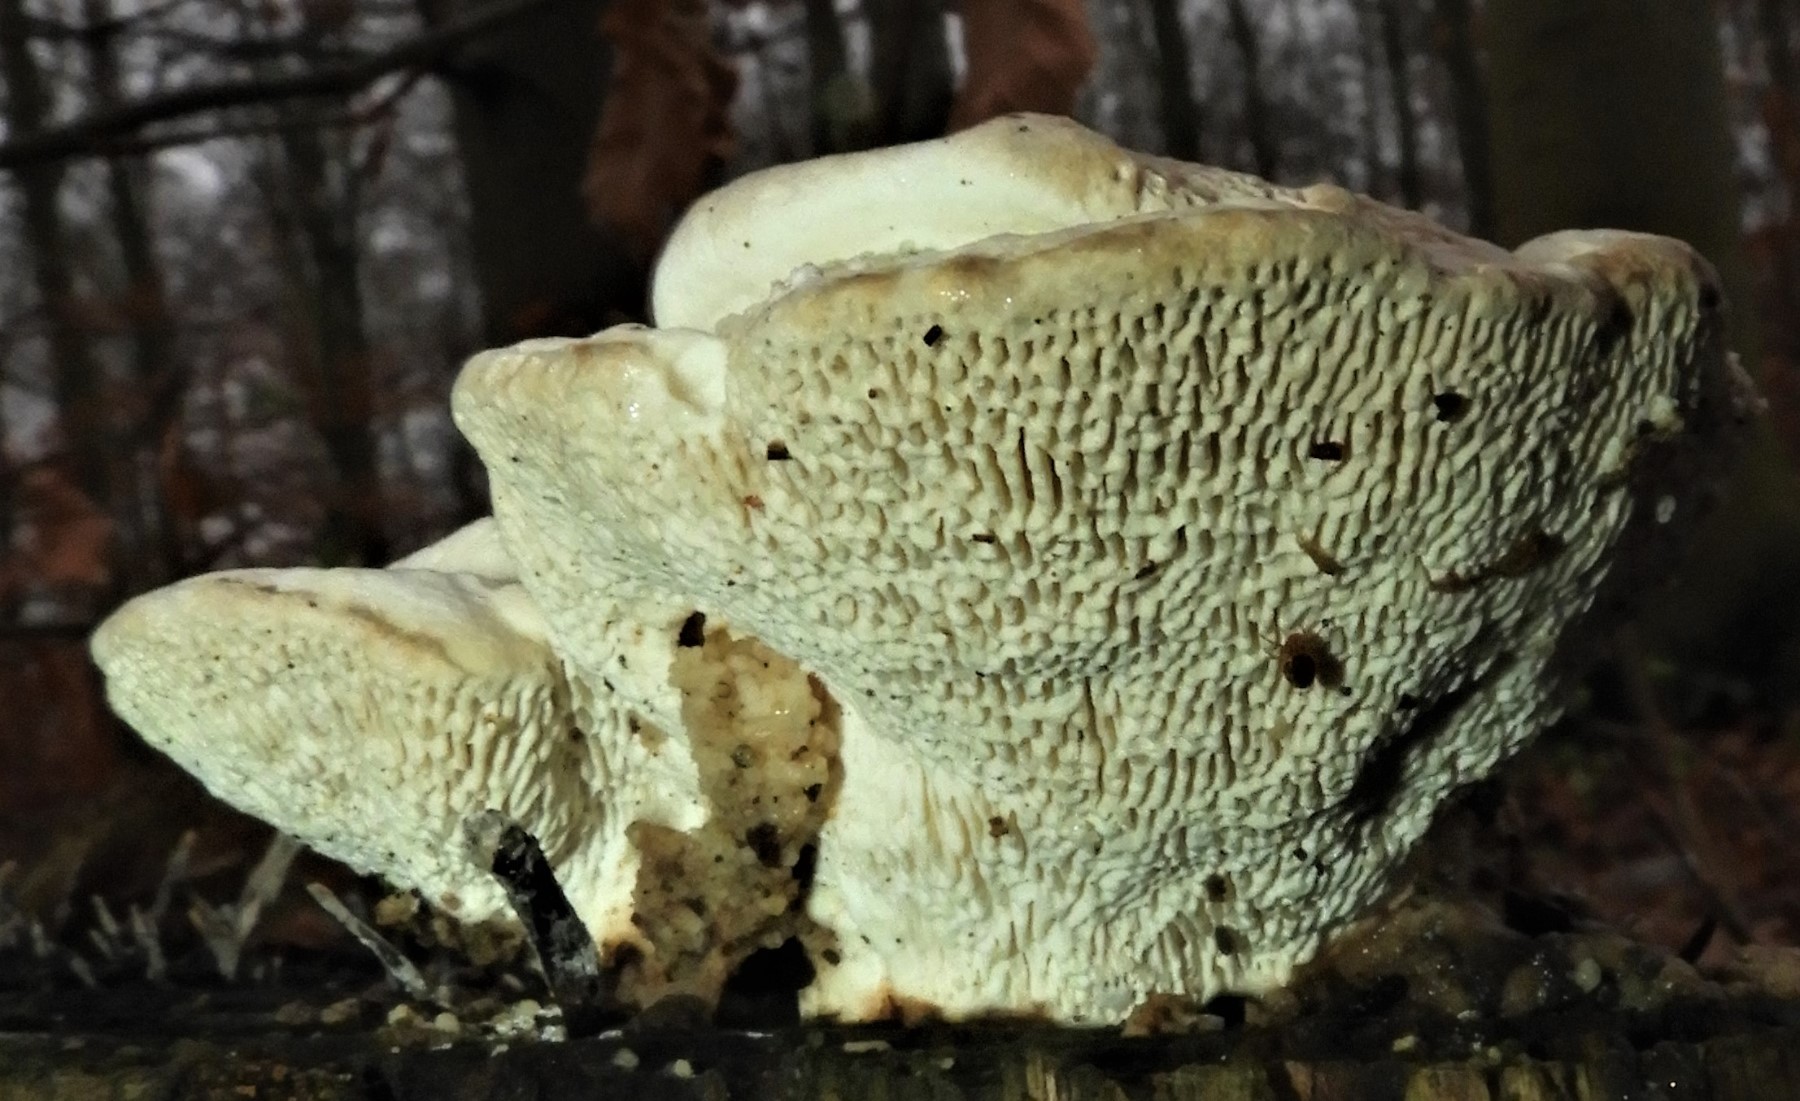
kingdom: Fungi
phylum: Basidiomycota
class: Agaricomycetes
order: Polyporales
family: Polyporaceae
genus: Trametes
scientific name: Trametes hirsuta
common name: håret læderporesvamp
